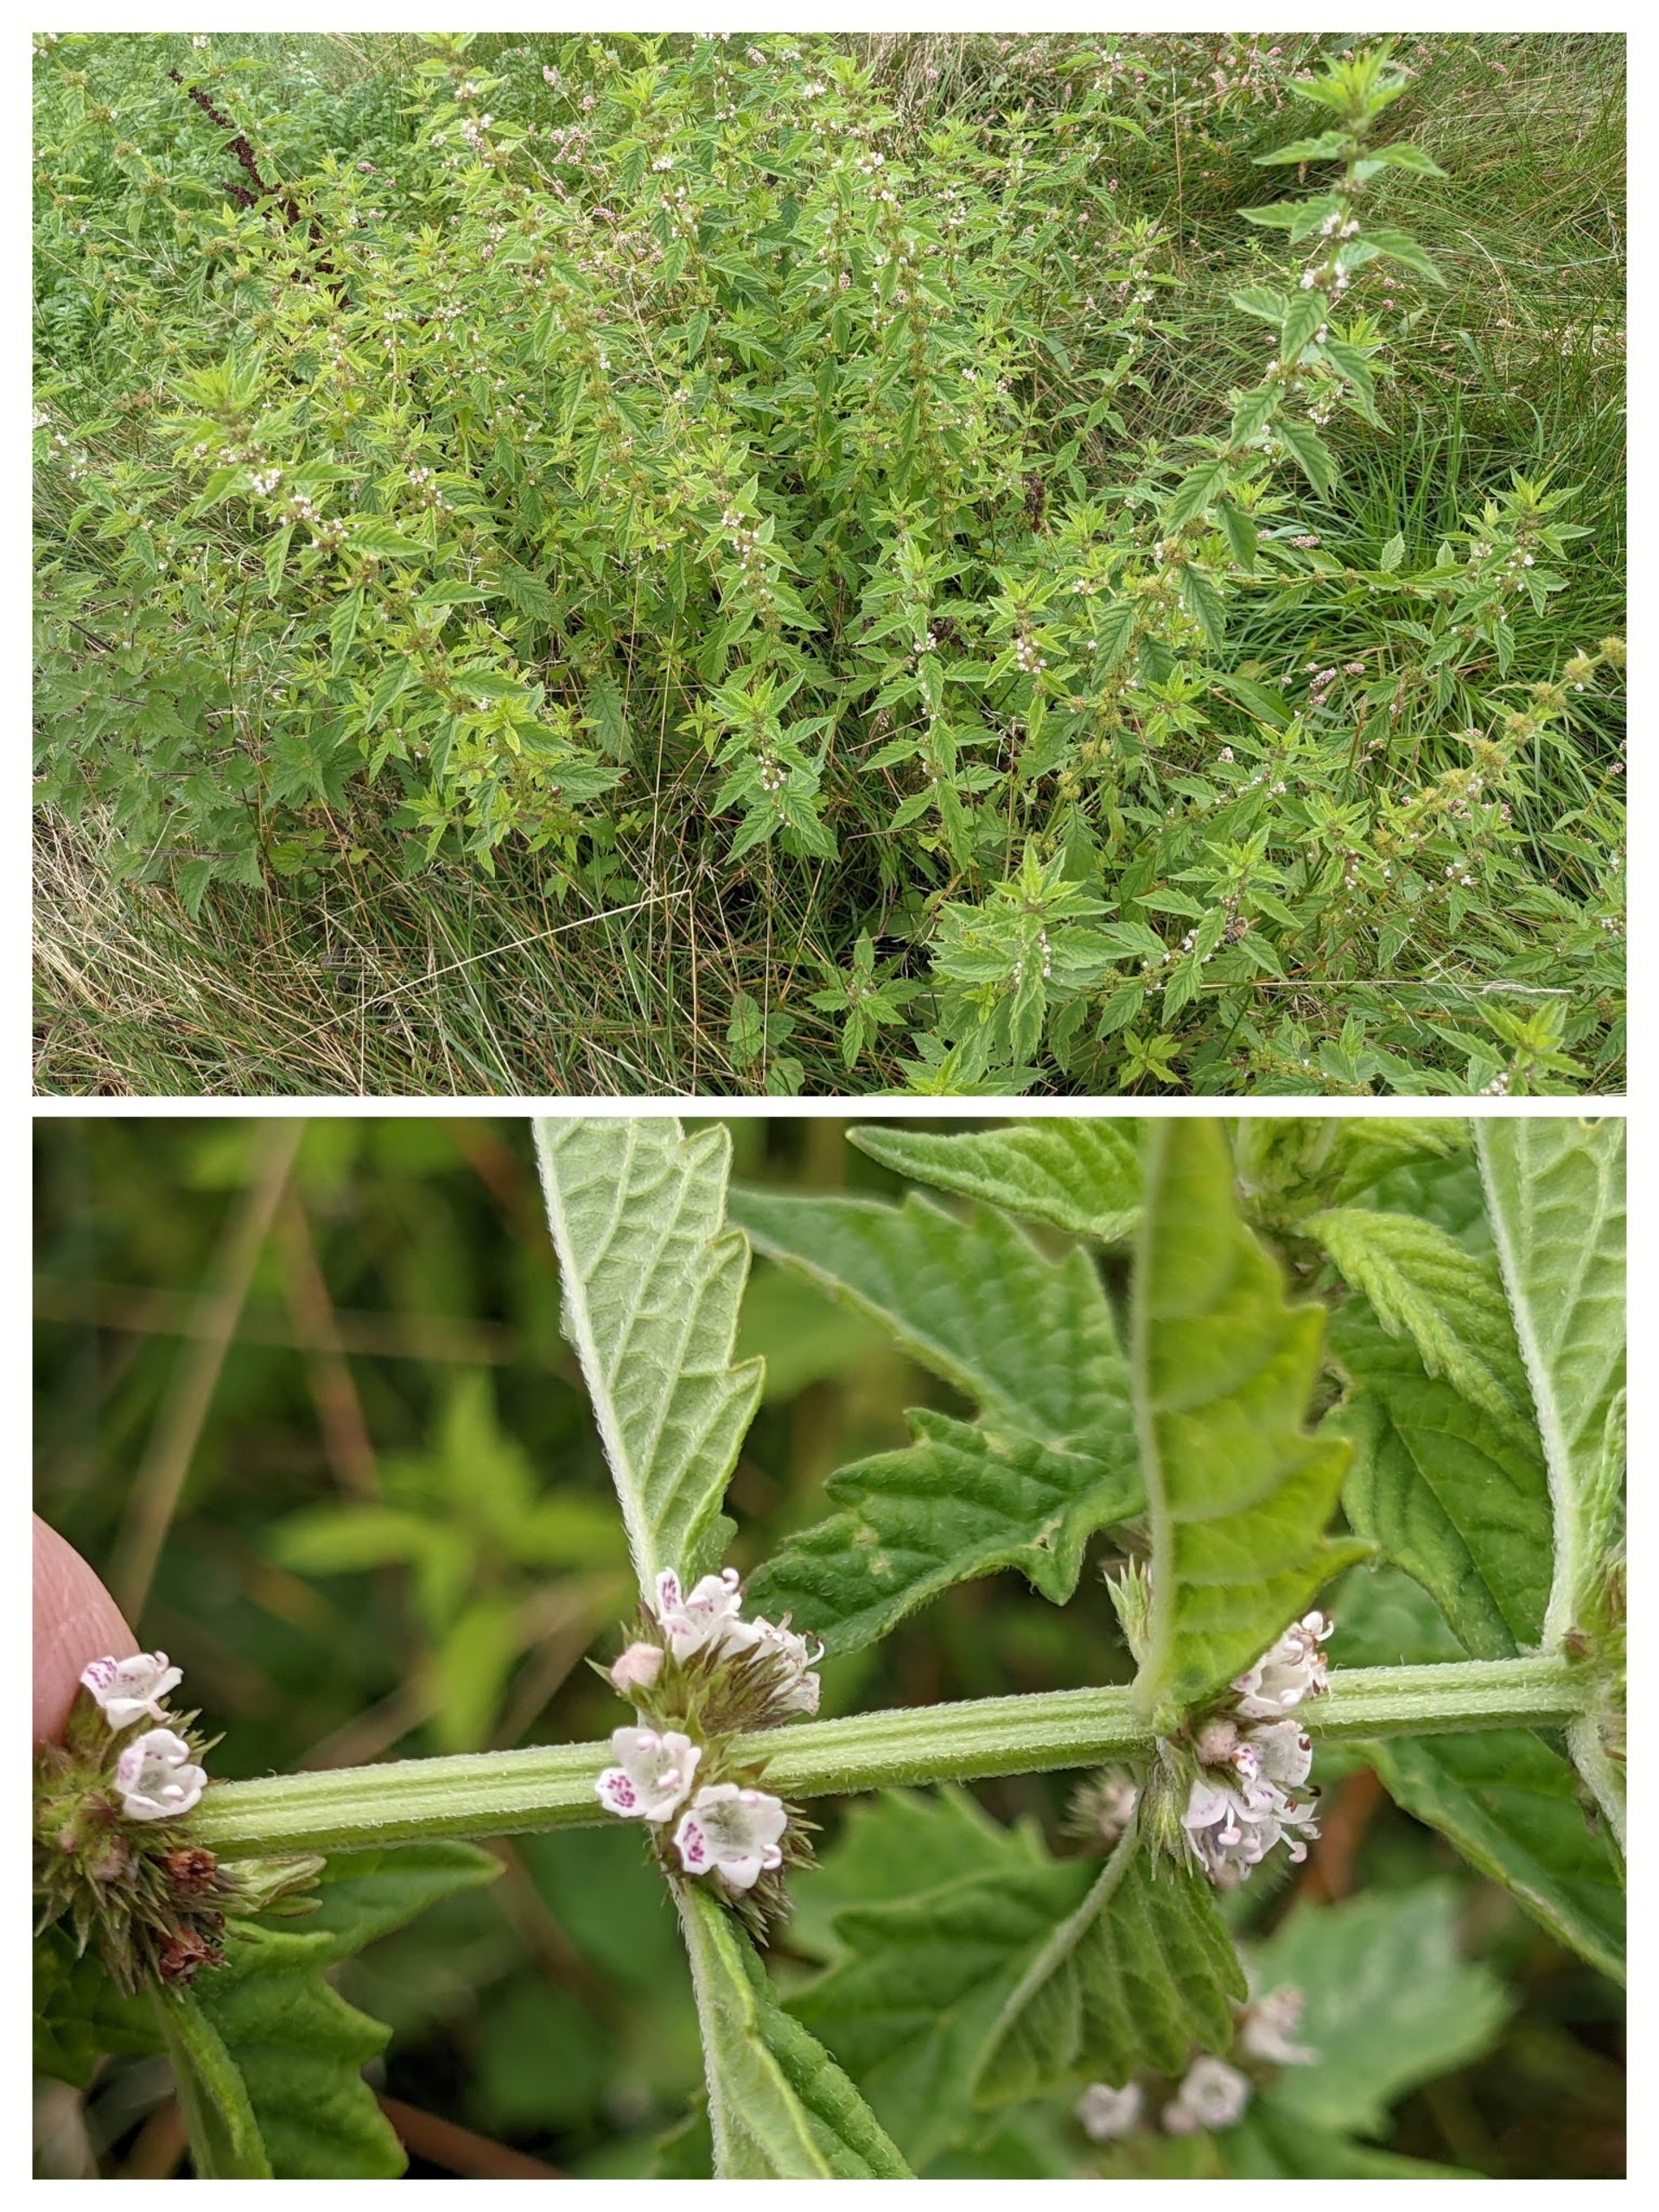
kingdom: Plantae
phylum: Tracheophyta
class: Magnoliopsida
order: Lamiales
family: Lamiaceae
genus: Lycopus
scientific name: Lycopus europaeus
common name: Sværtevæld
